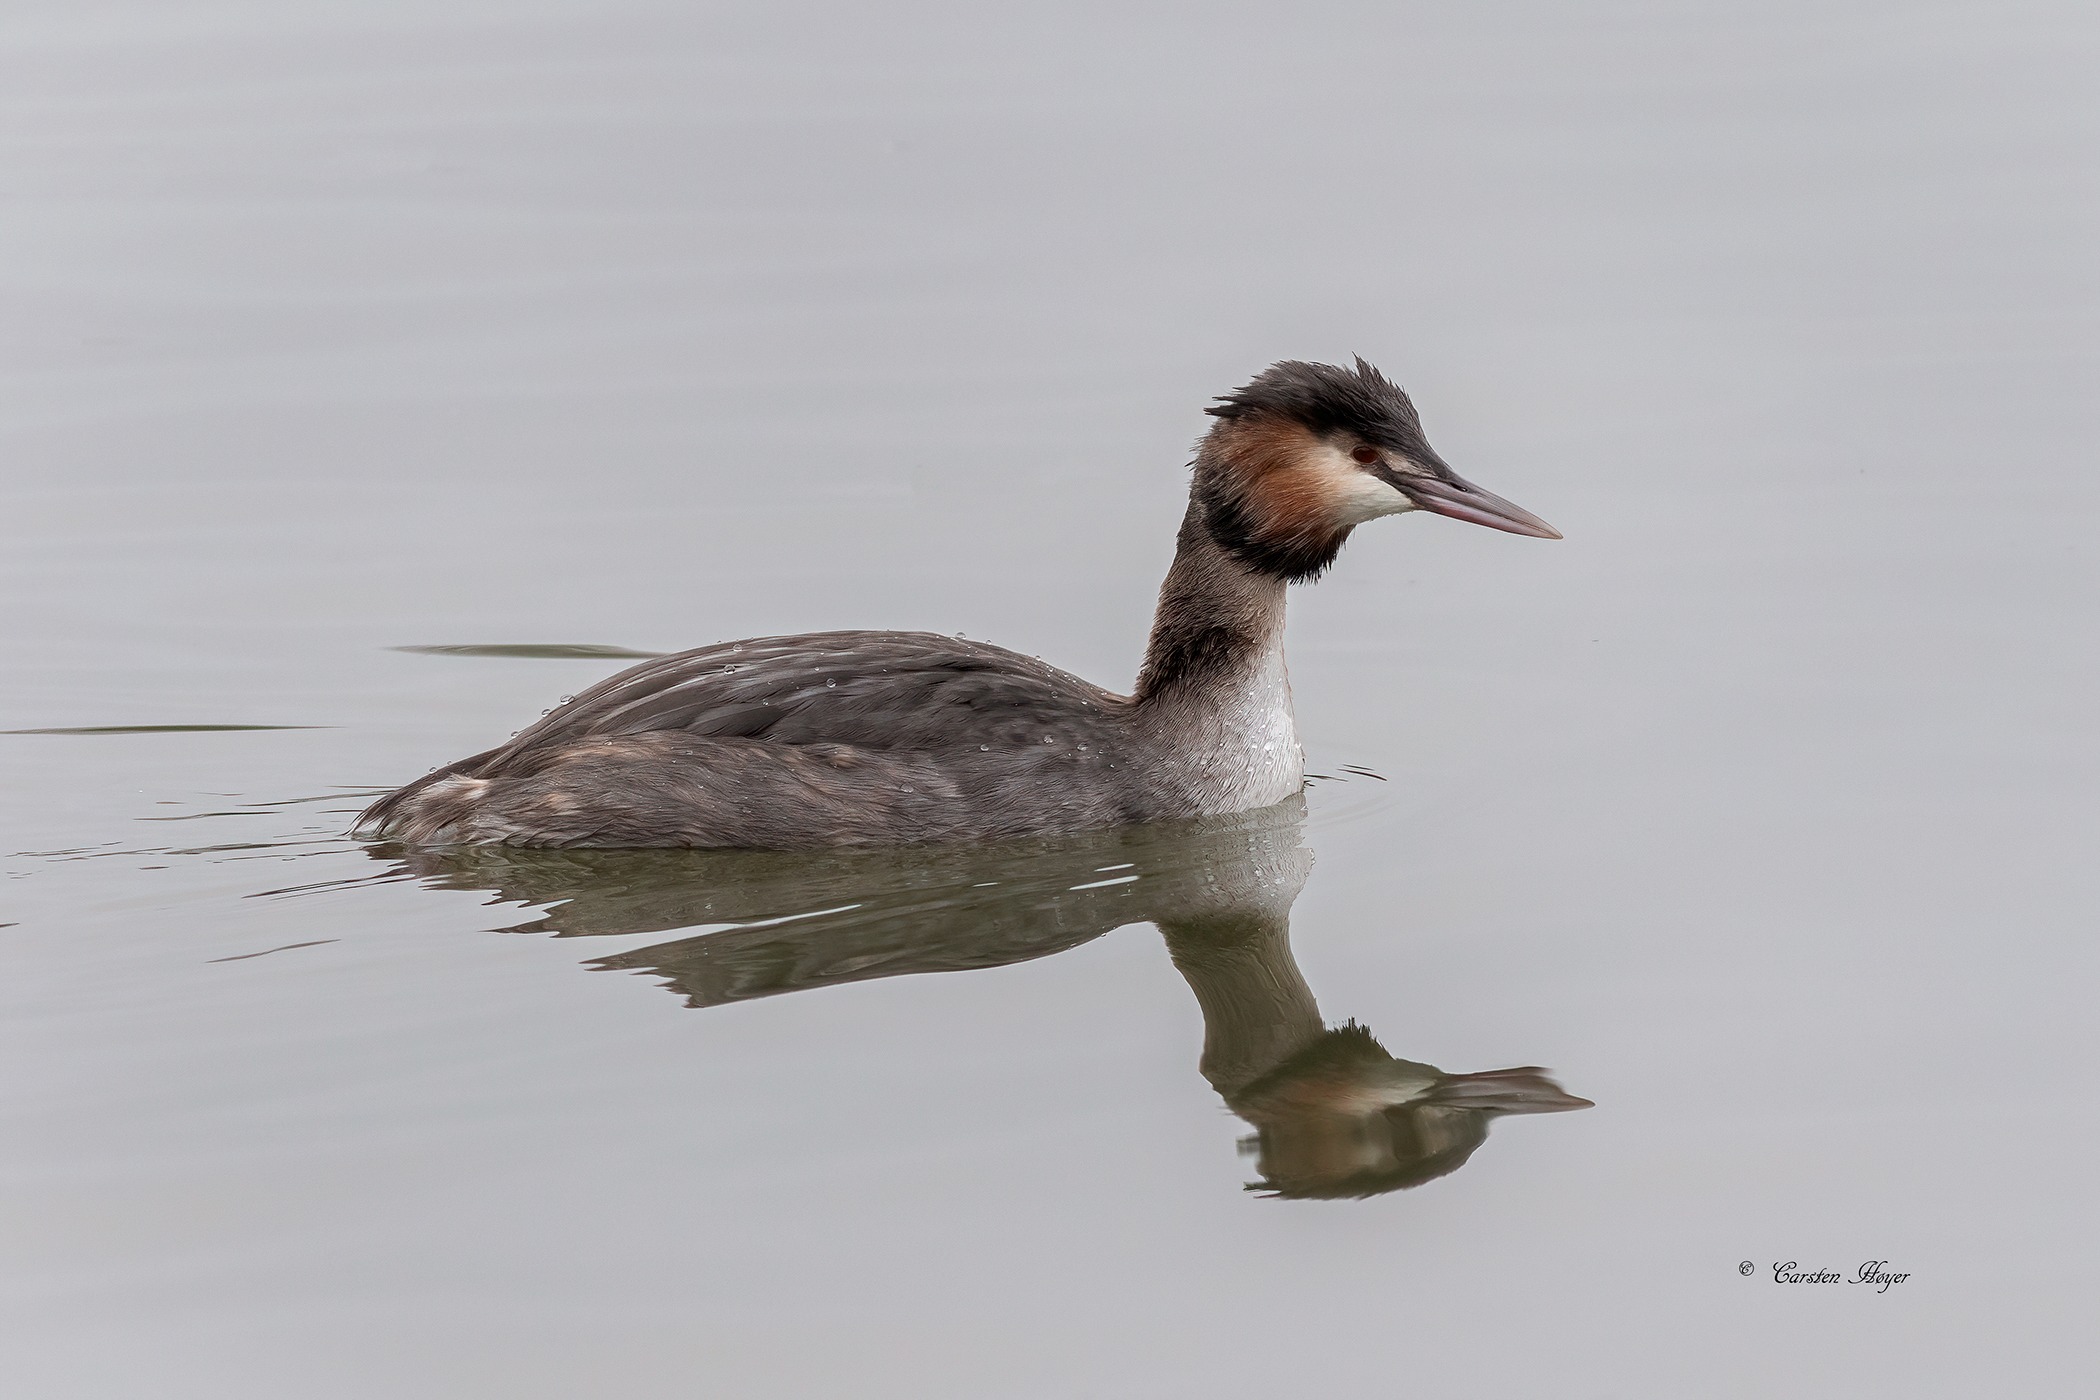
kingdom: Animalia
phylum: Chordata
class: Aves
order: Podicipediformes
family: Podicipedidae
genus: Podiceps
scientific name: Podiceps cristatus
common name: Toppet lappedykker
